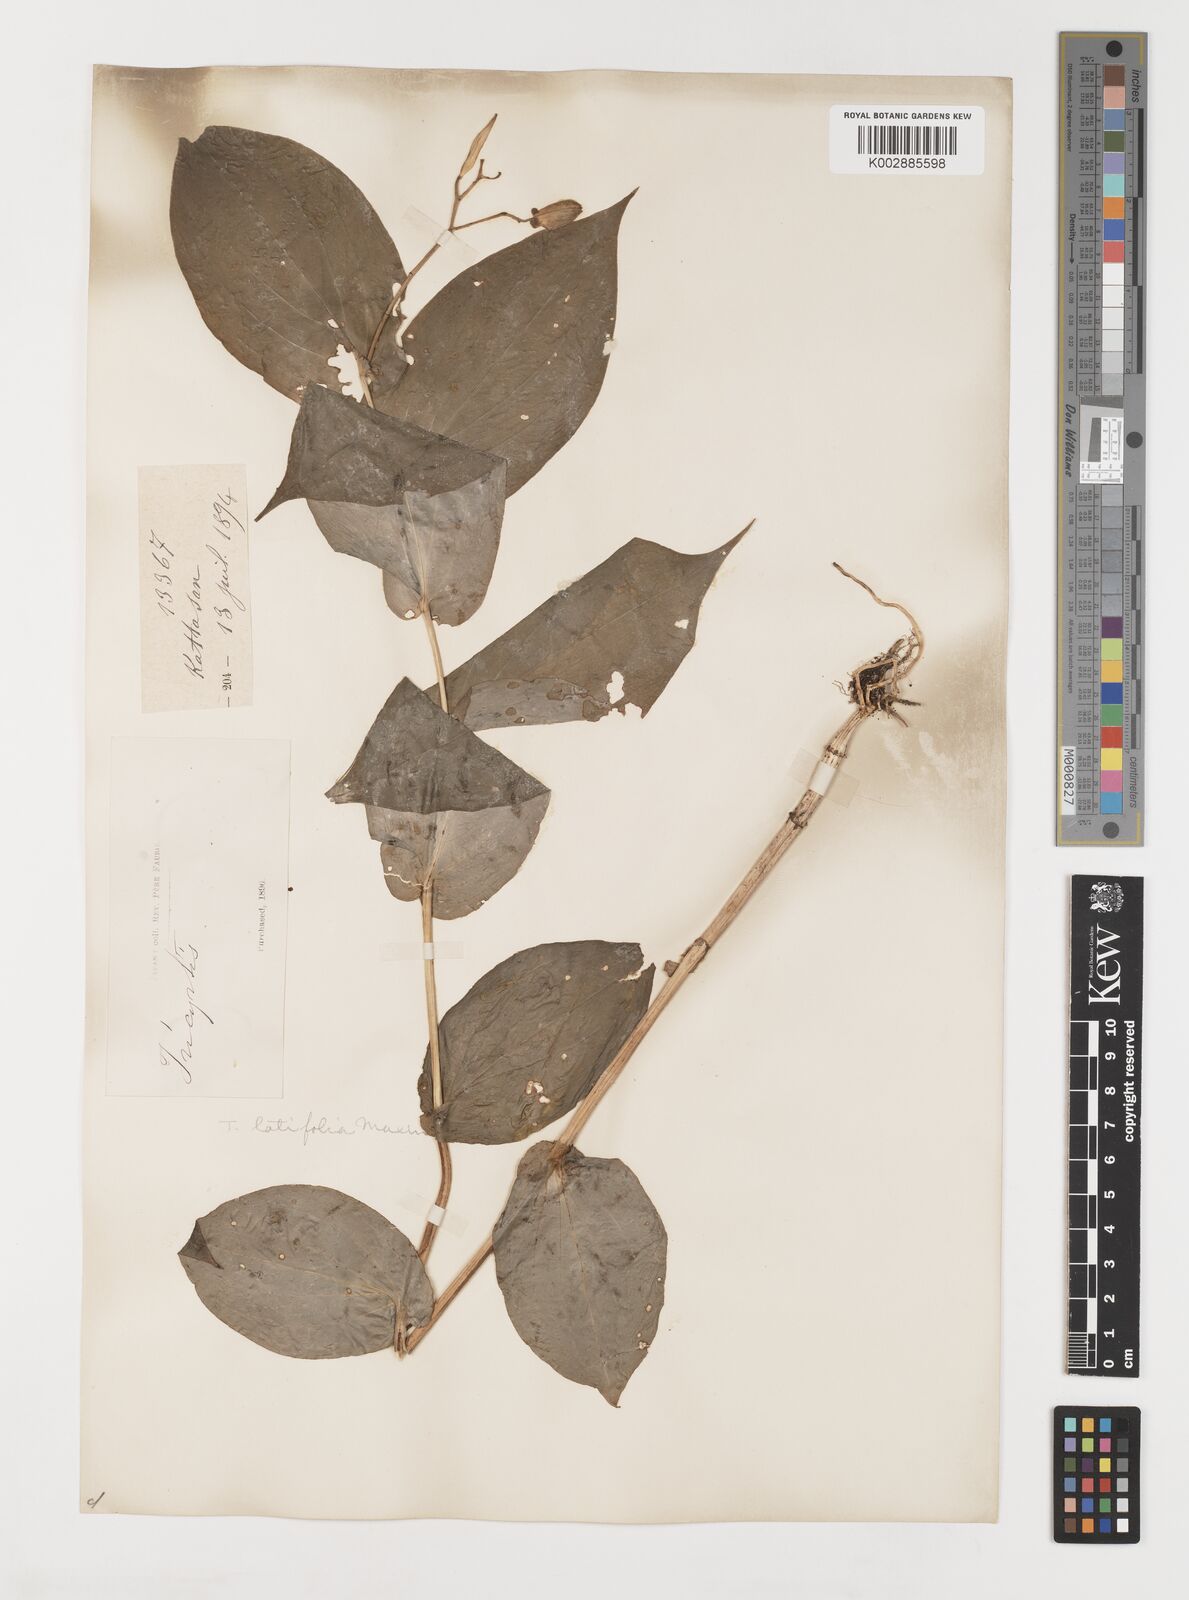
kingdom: Plantae
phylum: Tracheophyta
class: Liliopsida
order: Liliales
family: Liliaceae
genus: Tricyrtis
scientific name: Tricyrtis latifolia
